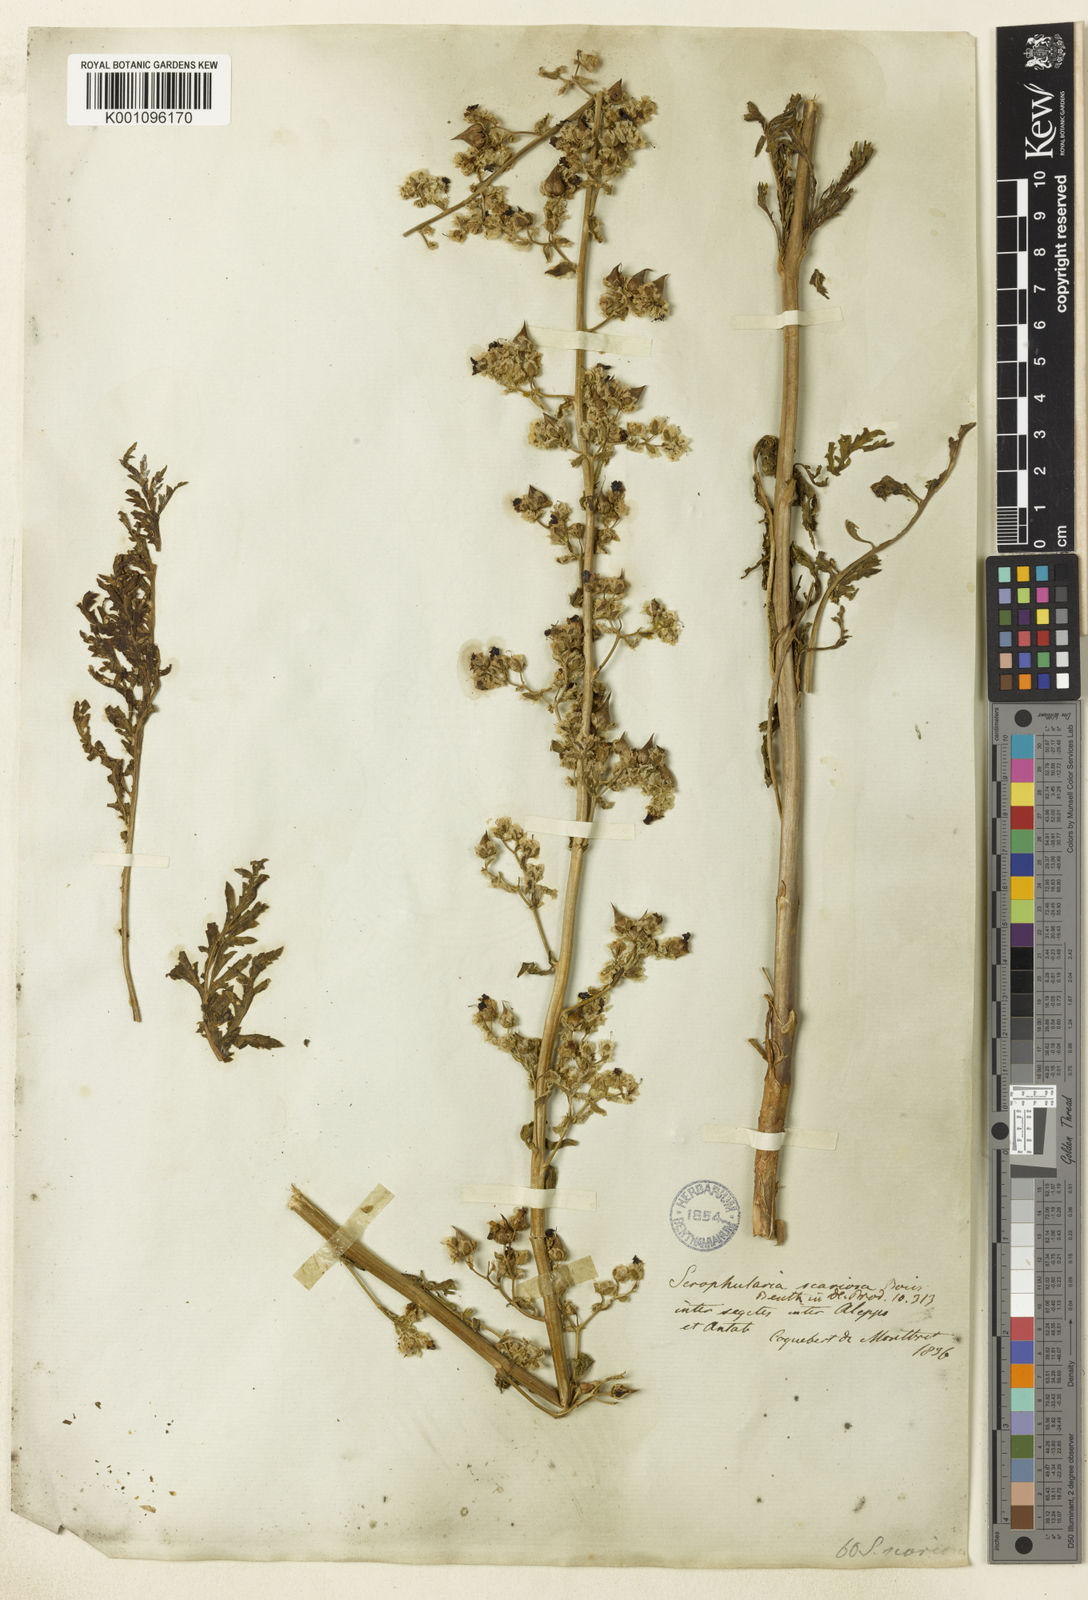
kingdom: Plantae
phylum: Tracheophyta
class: Magnoliopsida
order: Lamiales
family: Scrophulariaceae
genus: Scrophularia
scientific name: Scrophularia scariosa
